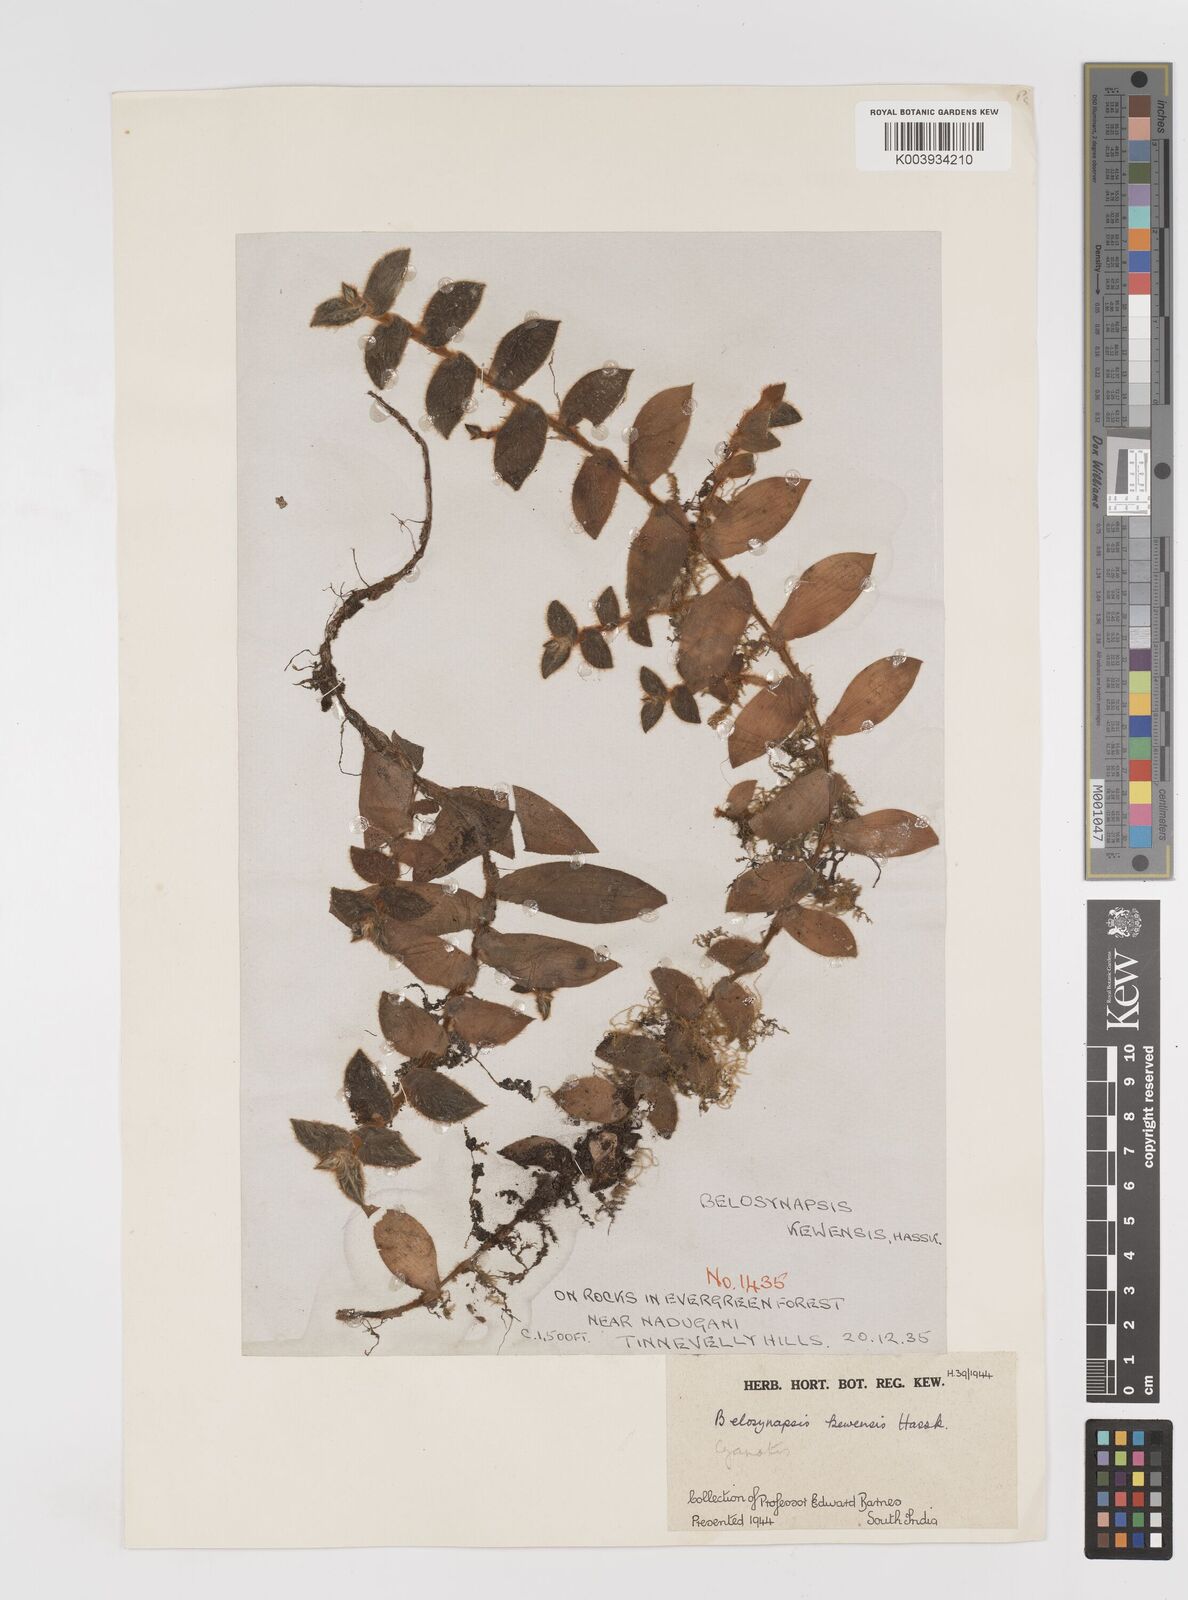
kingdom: Plantae
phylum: Tracheophyta
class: Liliopsida
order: Commelinales
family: Commelinaceae
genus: Cyanotis
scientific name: Cyanotis beddomei
